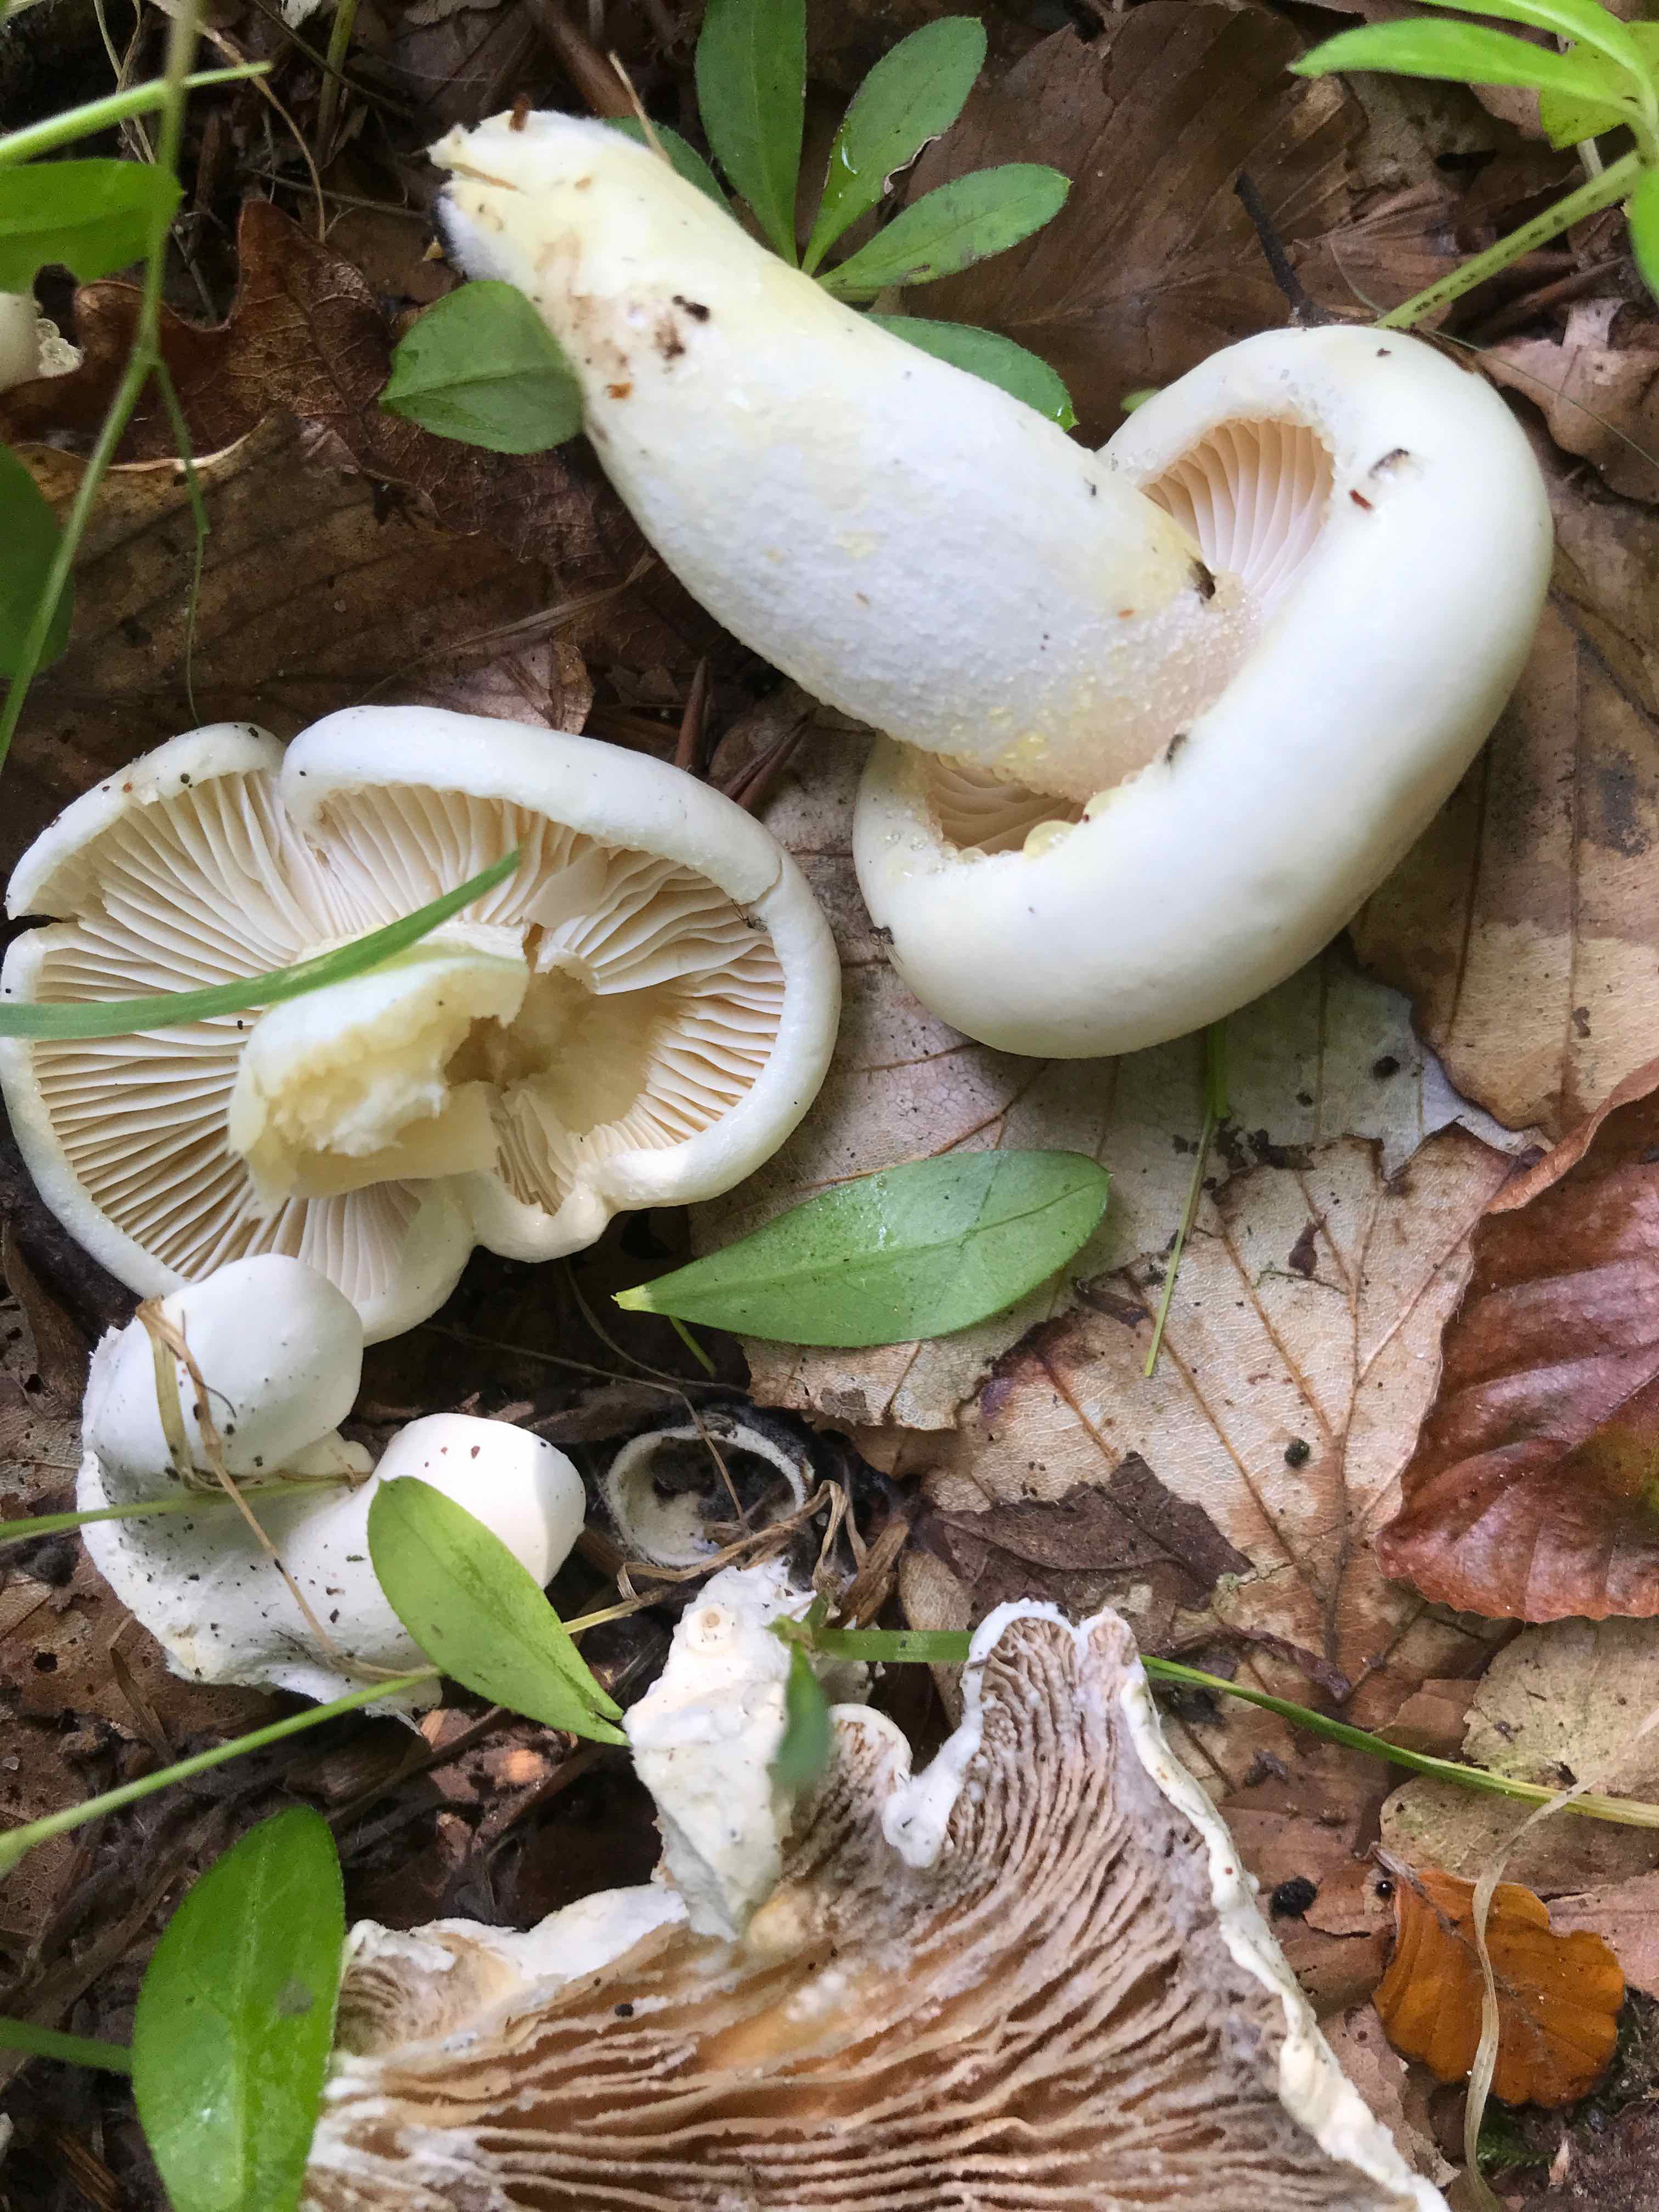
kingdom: Fungi
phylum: Basidiomycota
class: Agaricomycetes
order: Agaricales
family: Hygrophoraceae
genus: Hygrophorus
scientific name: Hygrophorus eburneus
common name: elfenbens-sneglehat
